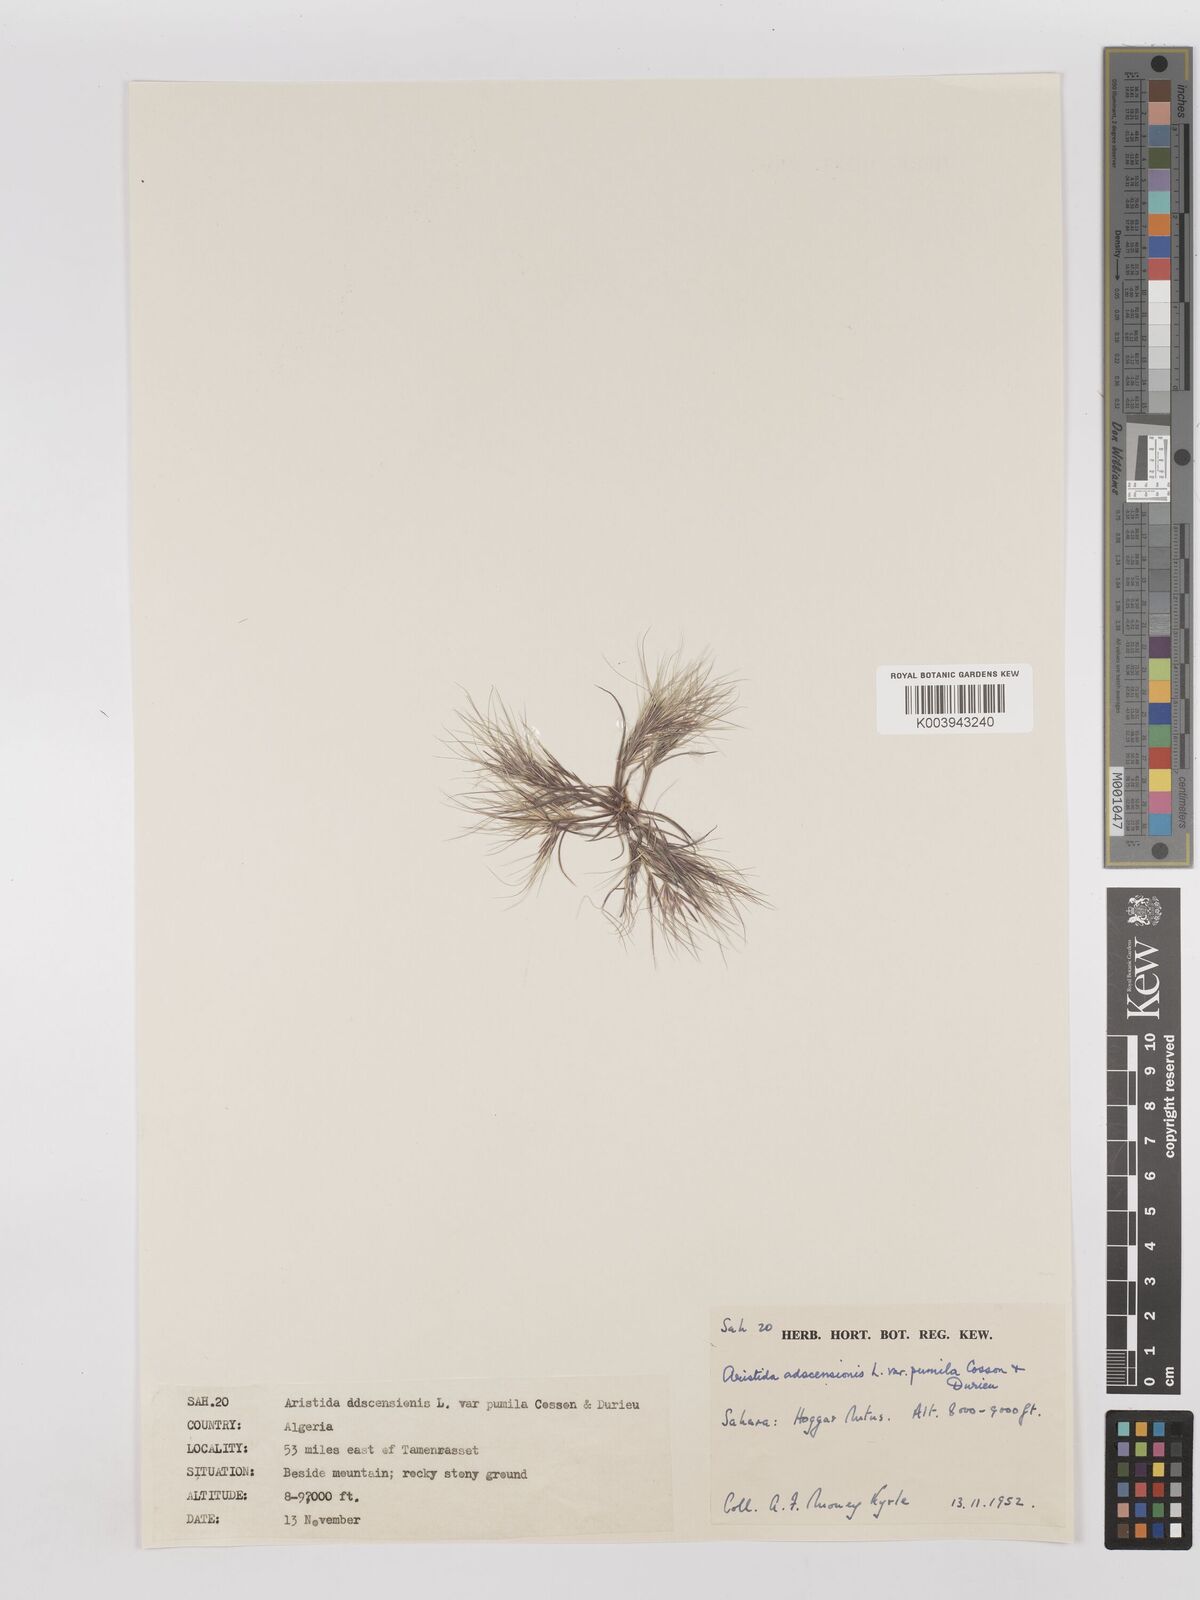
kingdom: Plantae
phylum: Tracheophyta
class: Liliopsida
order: Poales
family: Poaceae
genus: Aristida
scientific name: Aristida adscensionis
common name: Sixweeks threeawn
